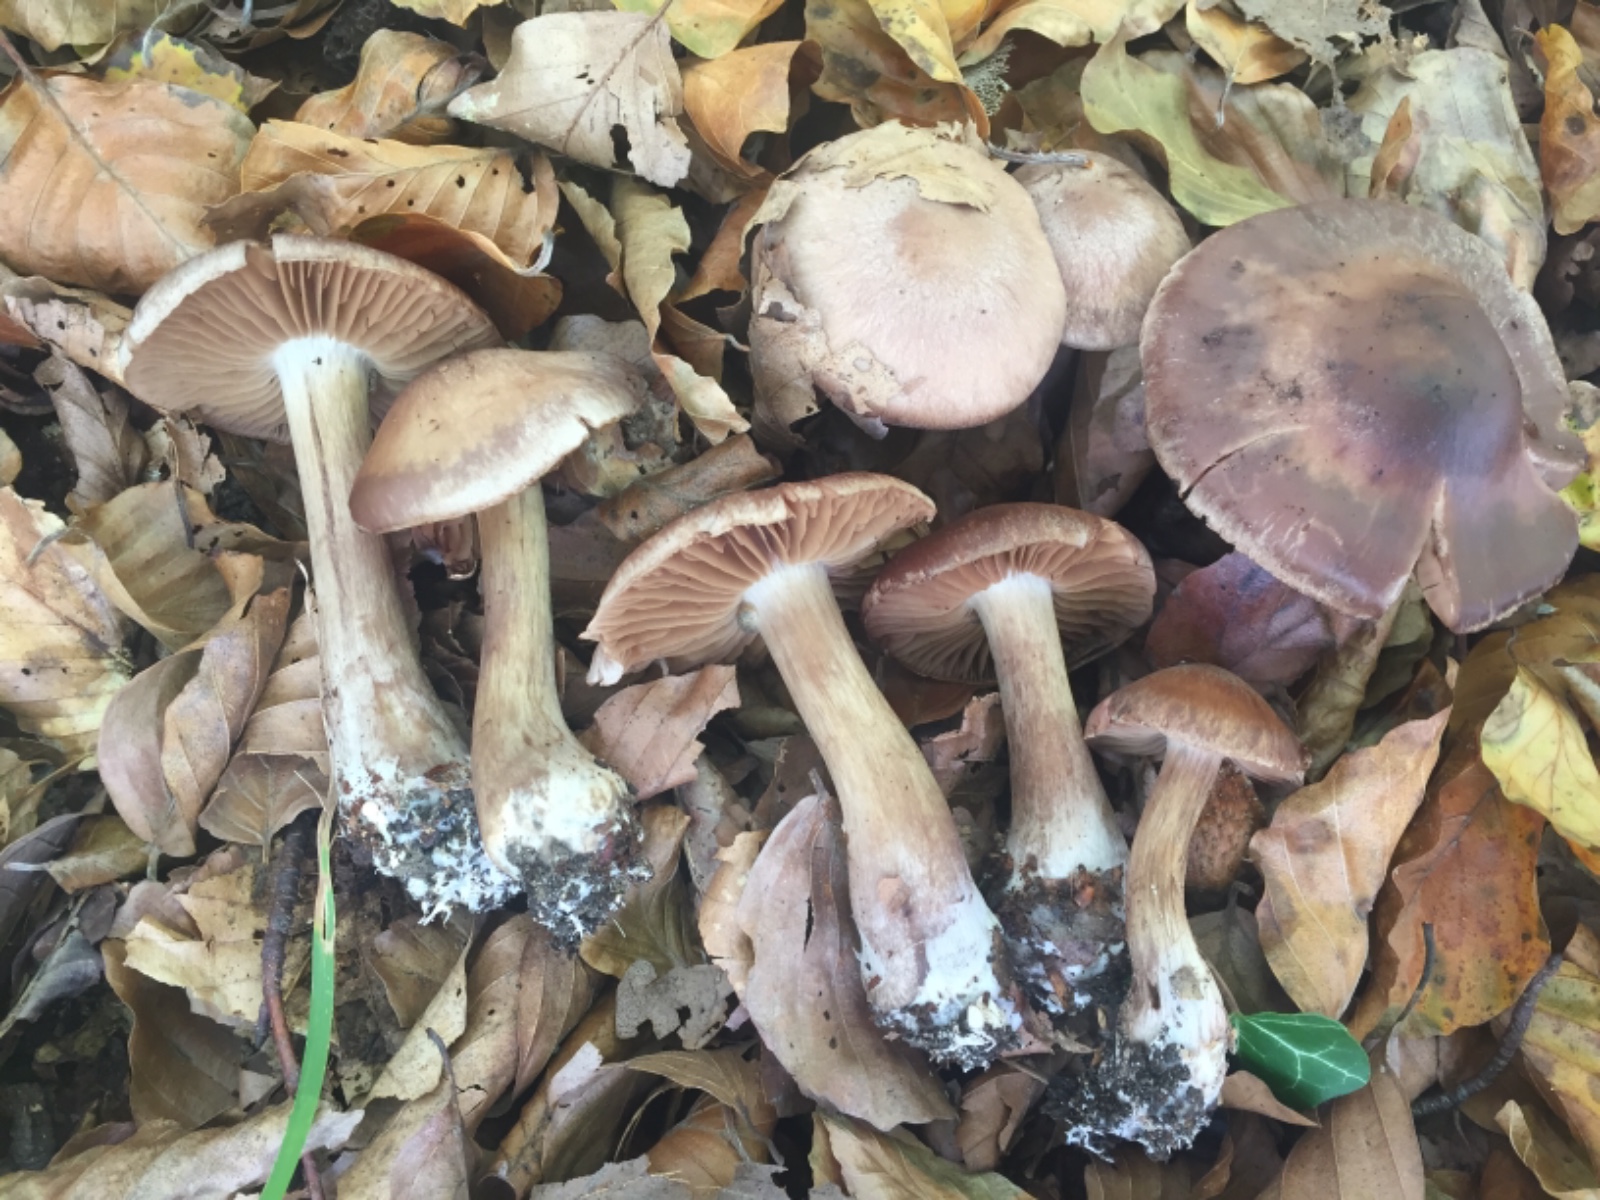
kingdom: Fungi
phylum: Basidiomycota
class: Agaricomycetes
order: Agaricales
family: Cortinariaceae
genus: Cortinarius
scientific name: Cortinarius nefastus
